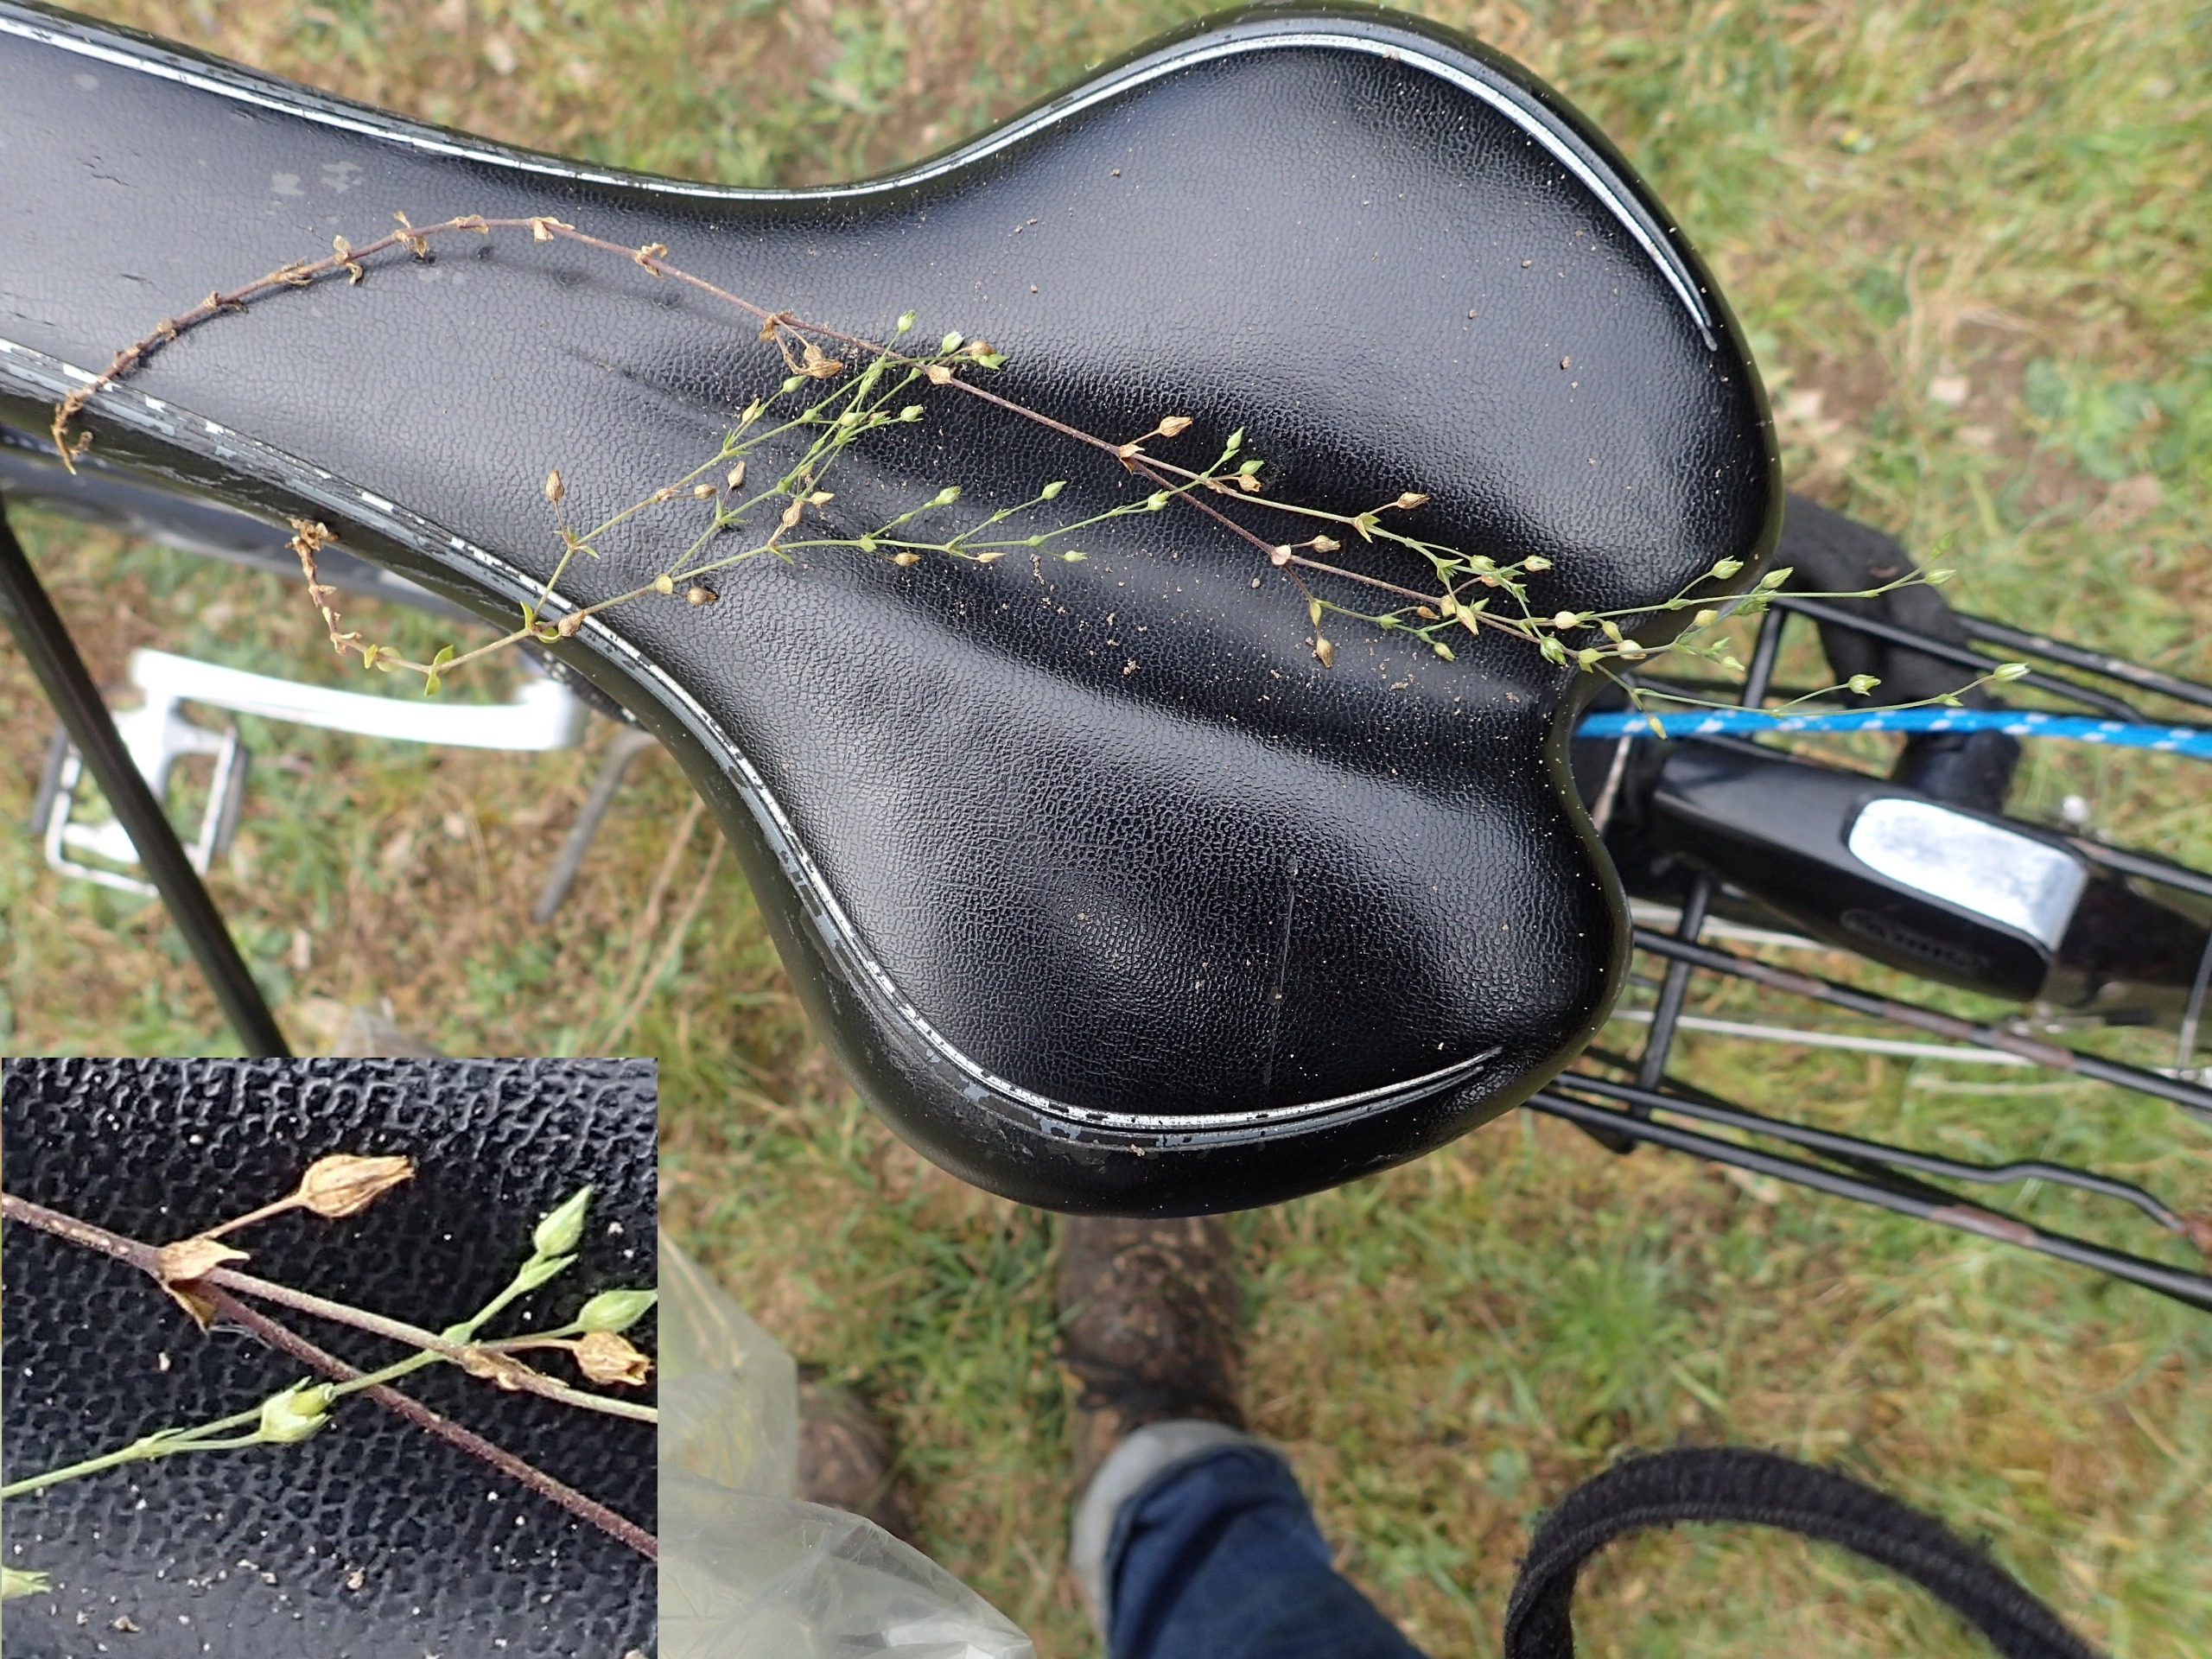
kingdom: Plantae
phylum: Tracheophyta
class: Magnoliopsida
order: Caryophyllales
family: Caryophyllaceae
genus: Arenaria
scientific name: Arenaria leptoclados
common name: Spæd markarve
